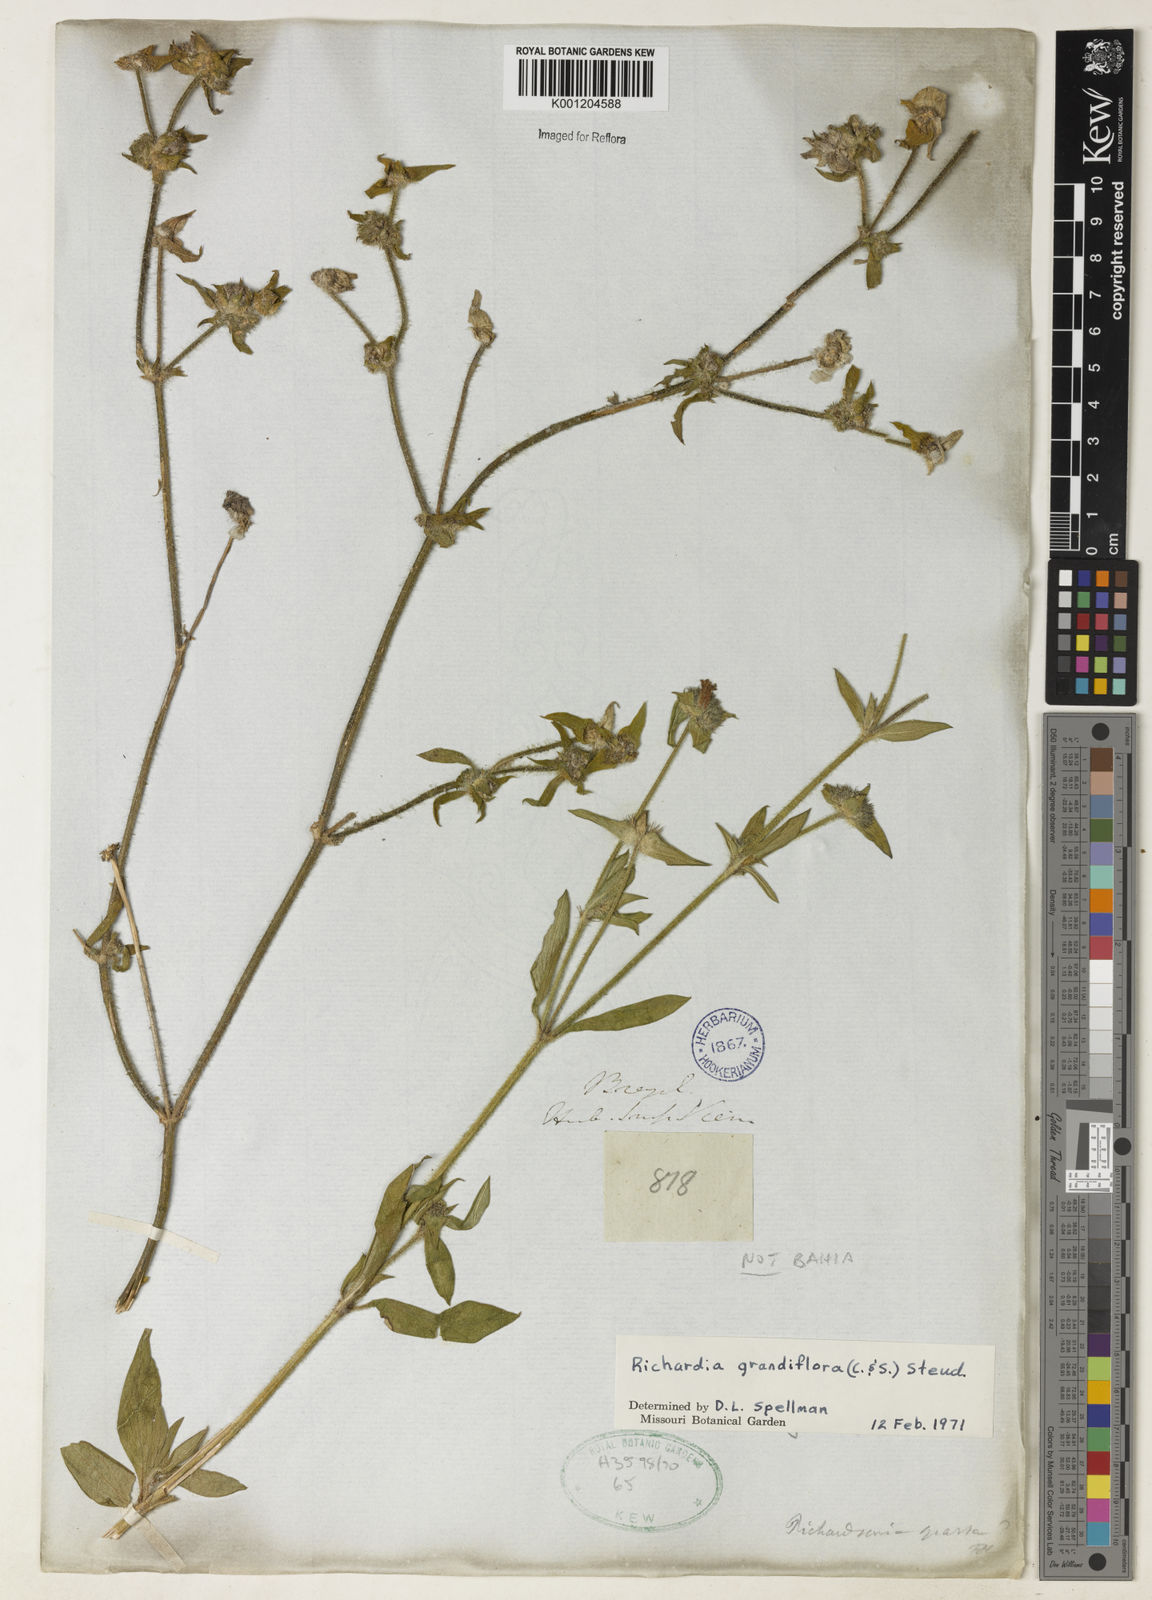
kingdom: Plantae
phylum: Tracheophyta
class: Magnoliopsida
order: Gentianales
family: Rubiaceae
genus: Richardia
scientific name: Richardia grandiflora
